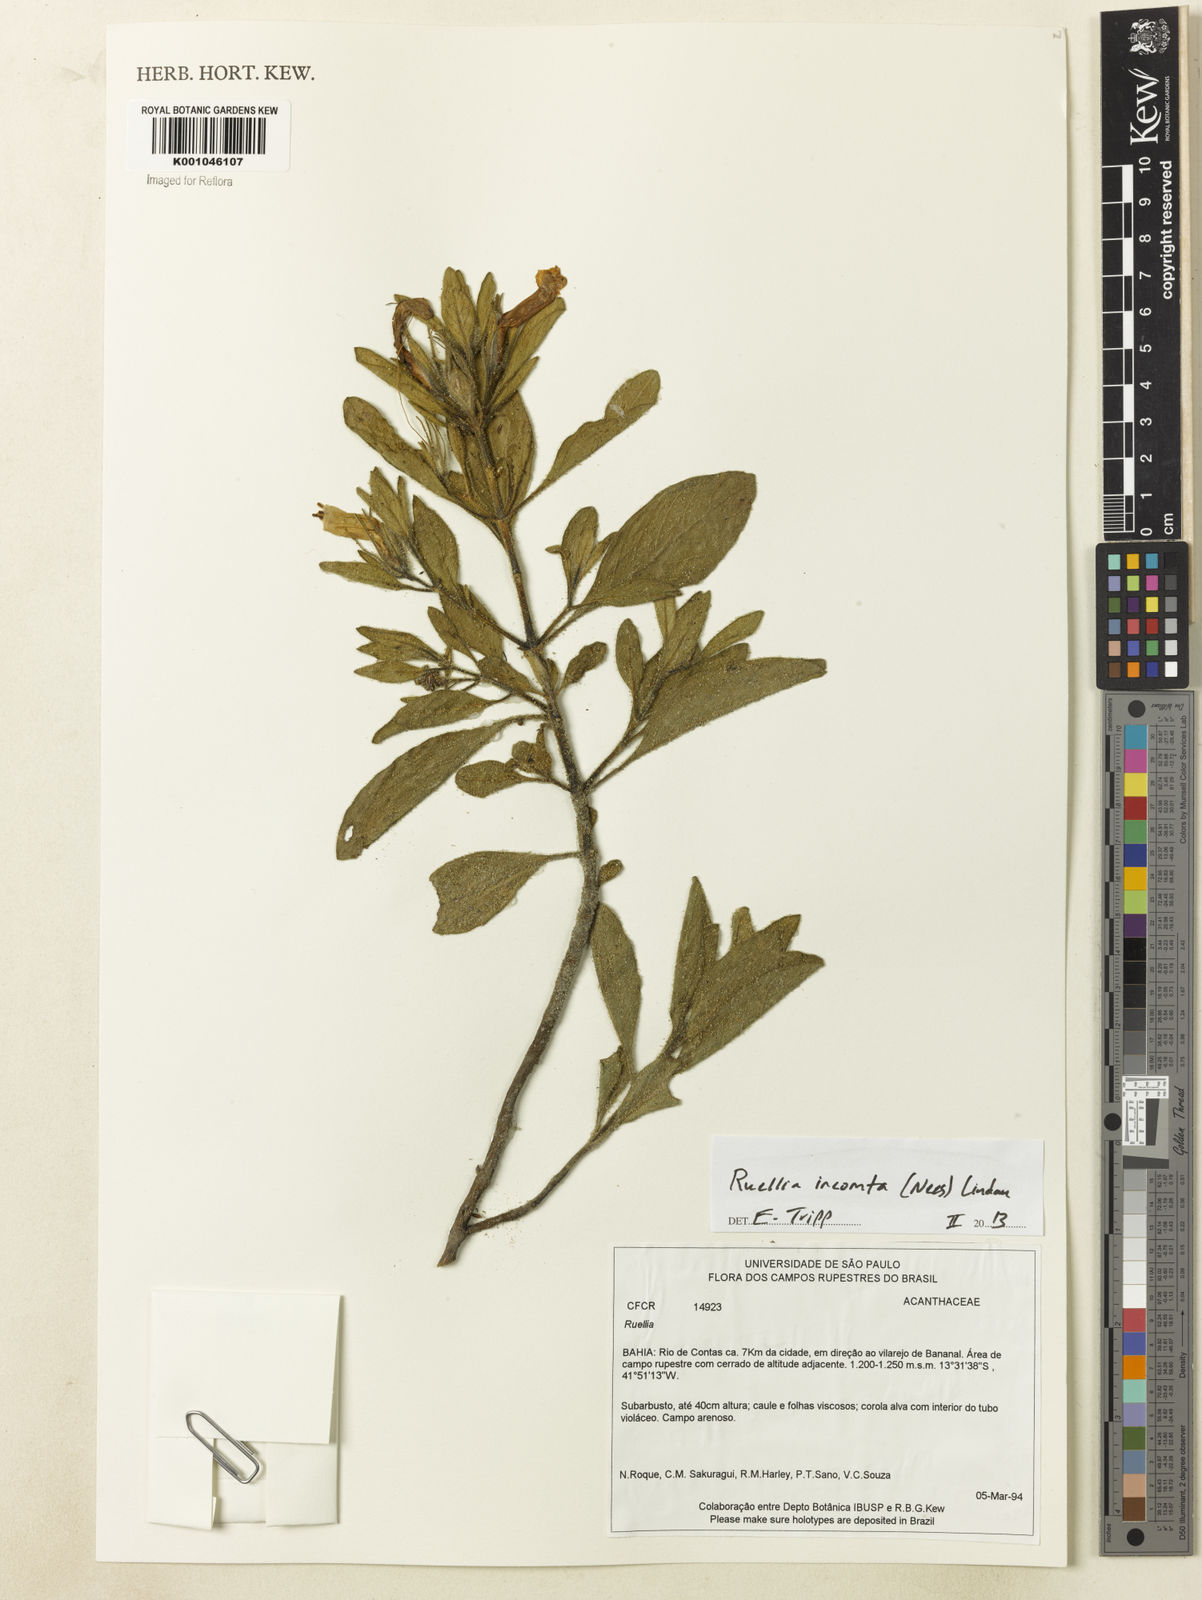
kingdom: Plantae
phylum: Tracheophyta
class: Magnoliopsida
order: Lamiales
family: Acanthaceae
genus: Ruellia
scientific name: Ruellia
